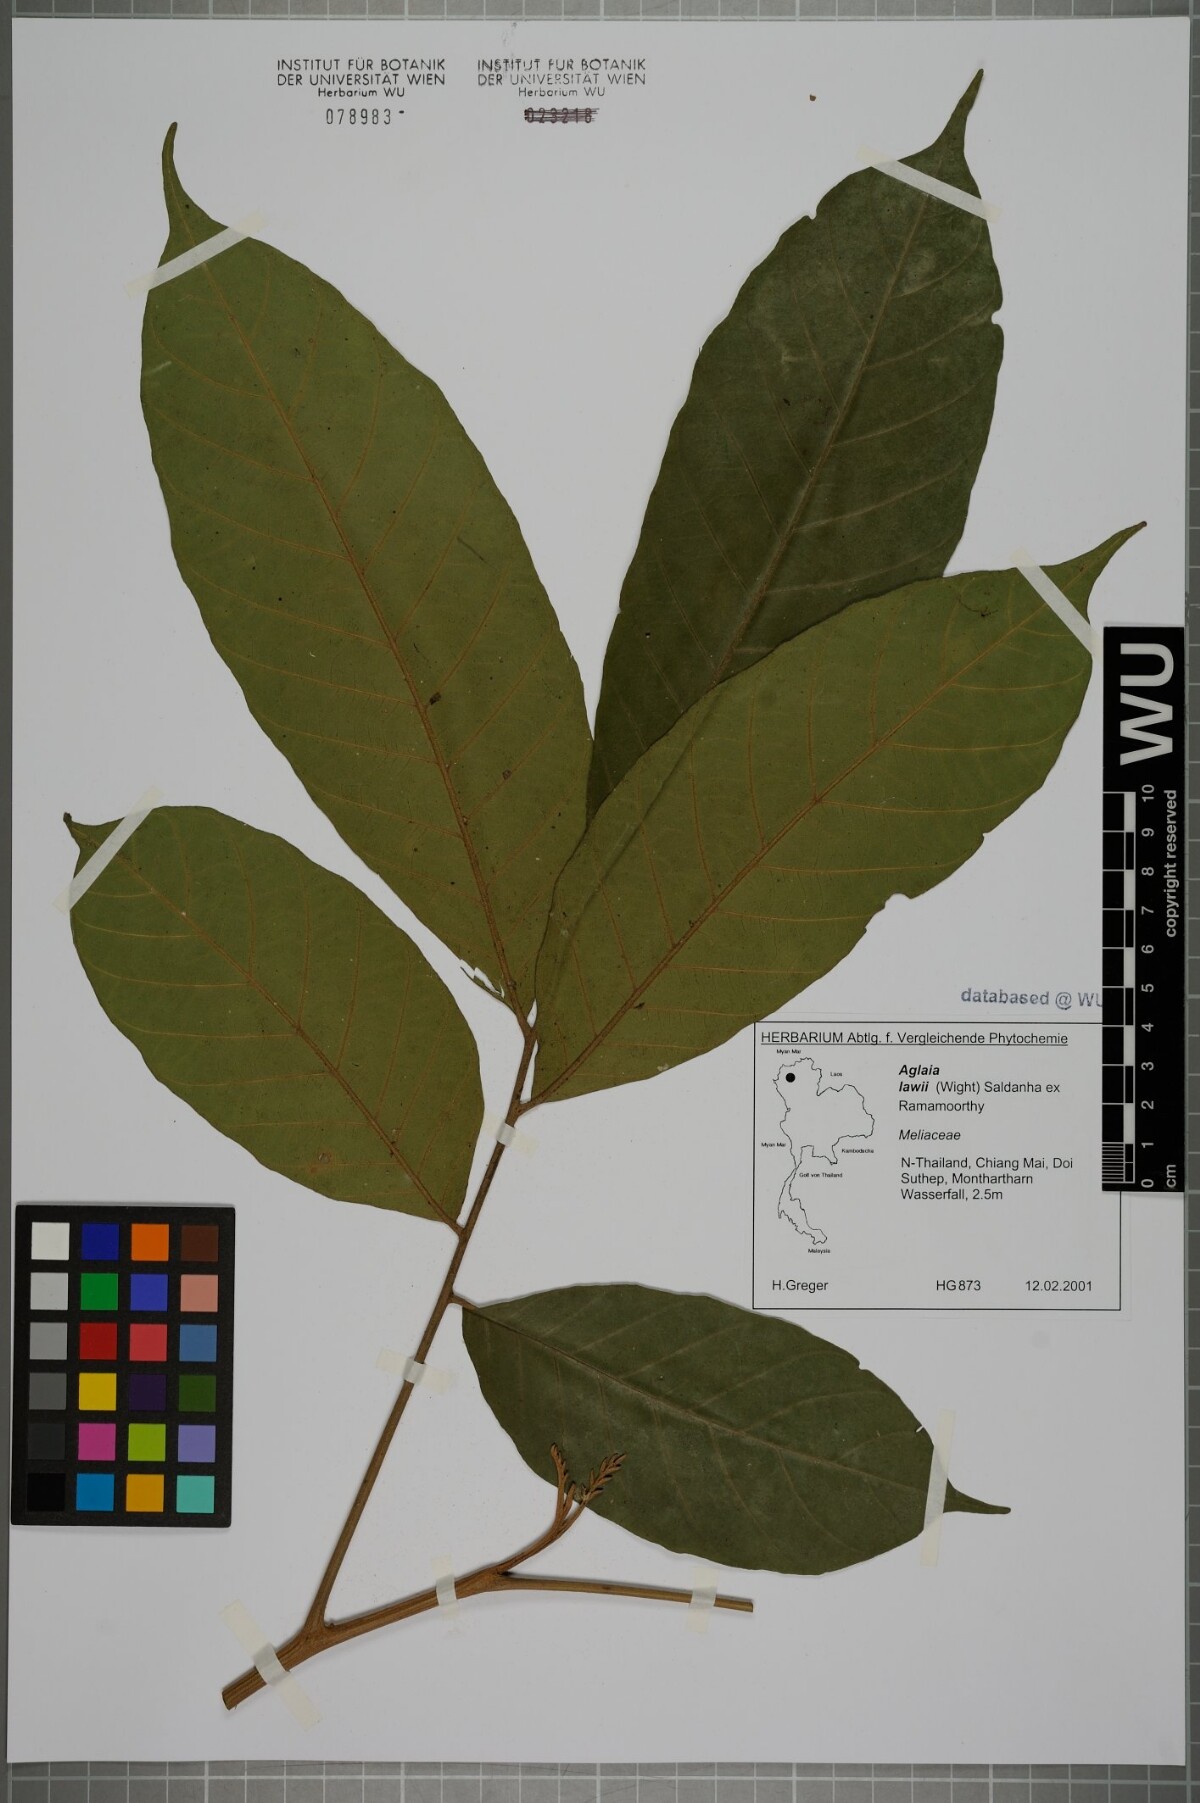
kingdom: Plantae
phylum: Tracheophyta
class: Magnoliopsida
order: Sapindales
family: Meliaceae
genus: Aglaia
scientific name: Aglaia lawii
